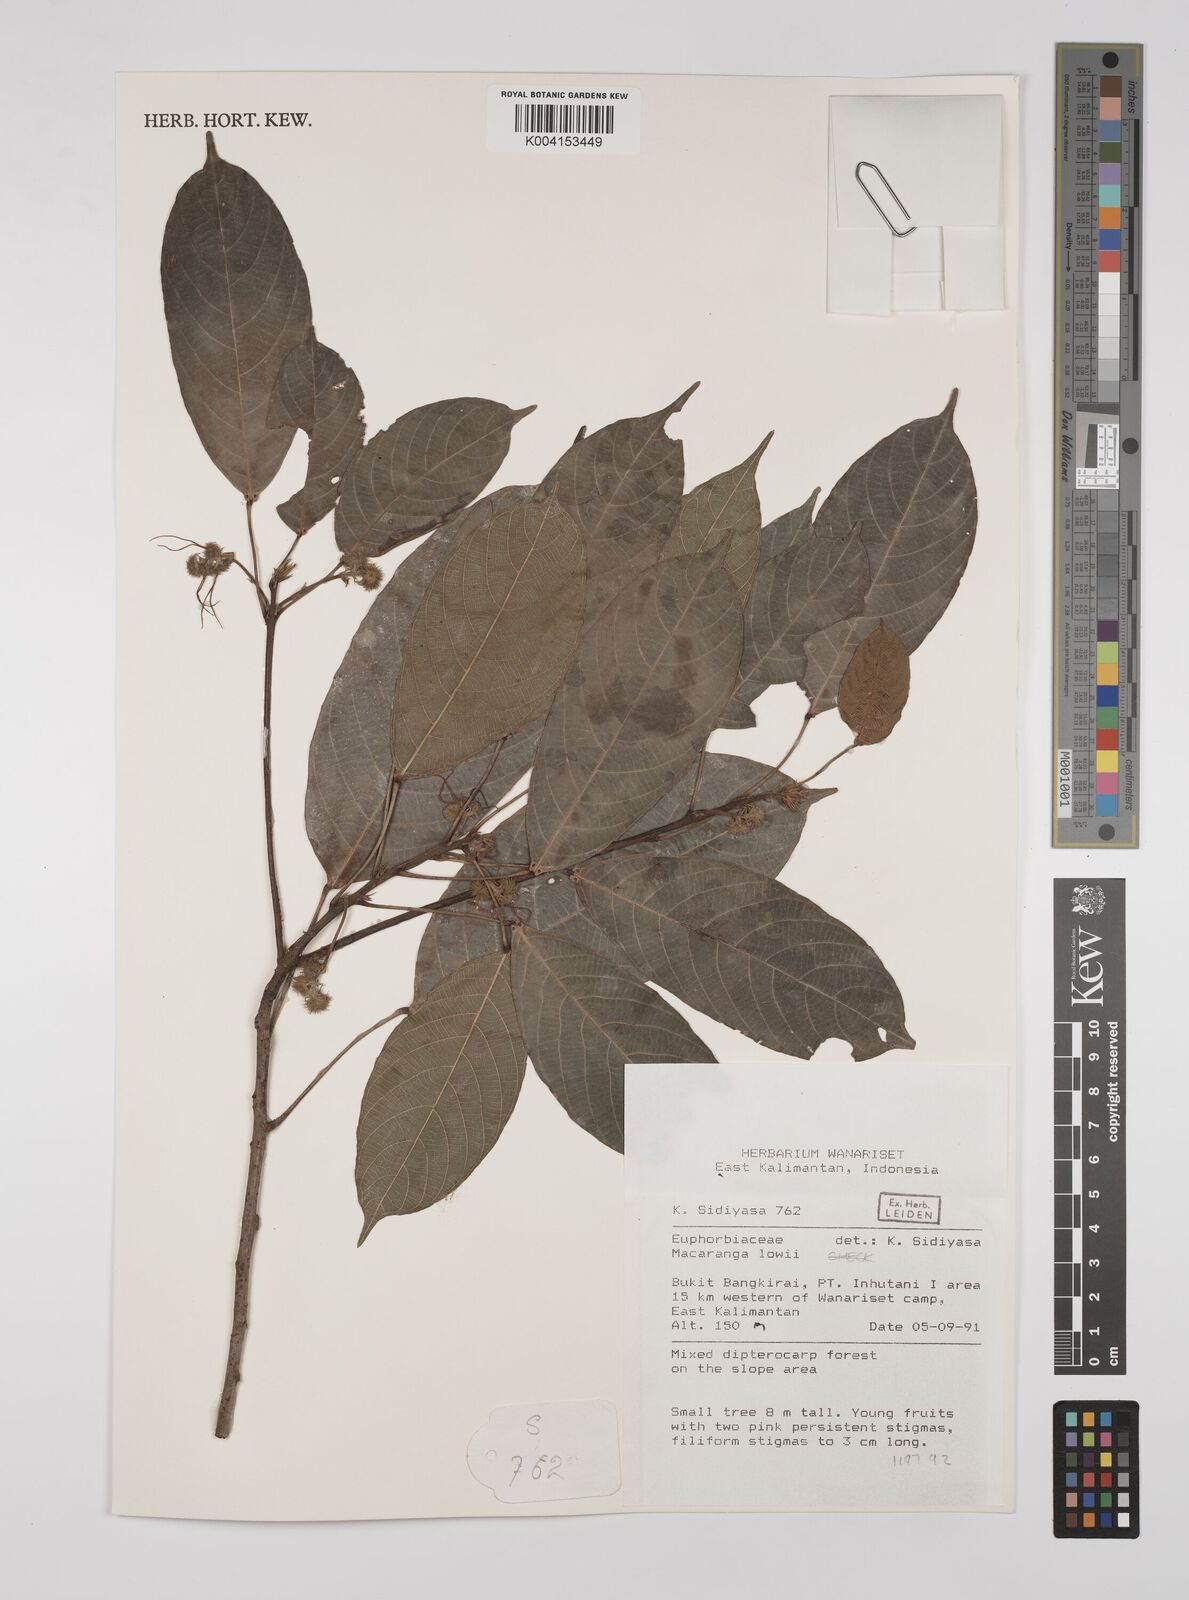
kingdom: Plantae
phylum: Tracheophyta
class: Magnoliopsida
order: Malpighiales
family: Euphorbiaceae
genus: Macaranga
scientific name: Macaranga lowii
